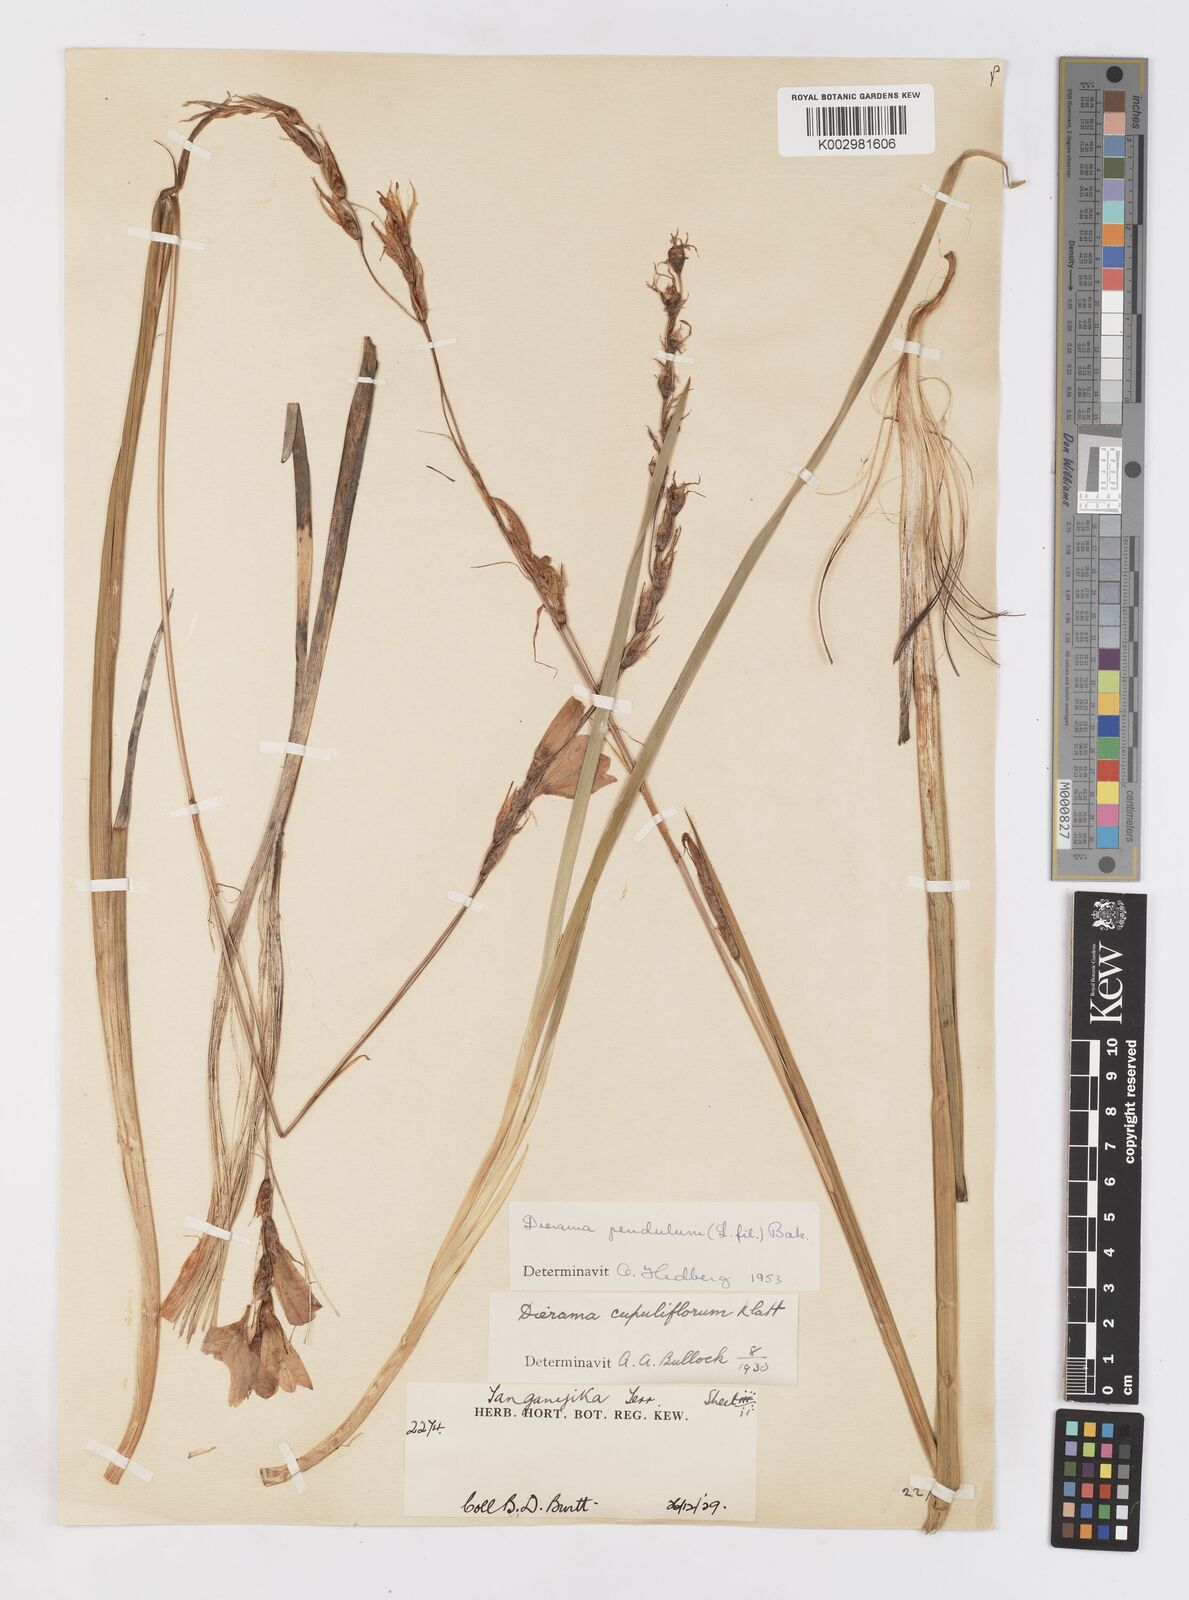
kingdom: Plantae
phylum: Tracheophyta
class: Liliopsida
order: Asparagales
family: Iridaceae
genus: Dierama
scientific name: Dierama cupuliflorum
